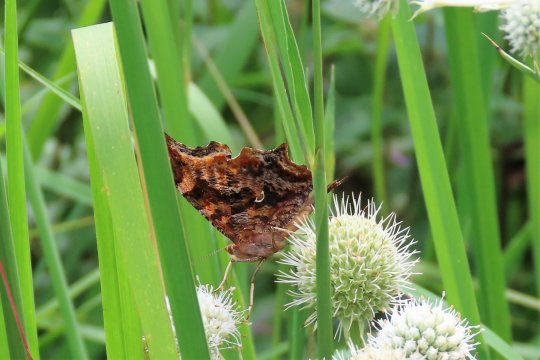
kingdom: Animalia
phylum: Arthropoda
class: Insecta
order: Lepidoptera
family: Nymphalidae
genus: Polygonia
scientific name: Polygonia comma
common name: Eastern Comma
